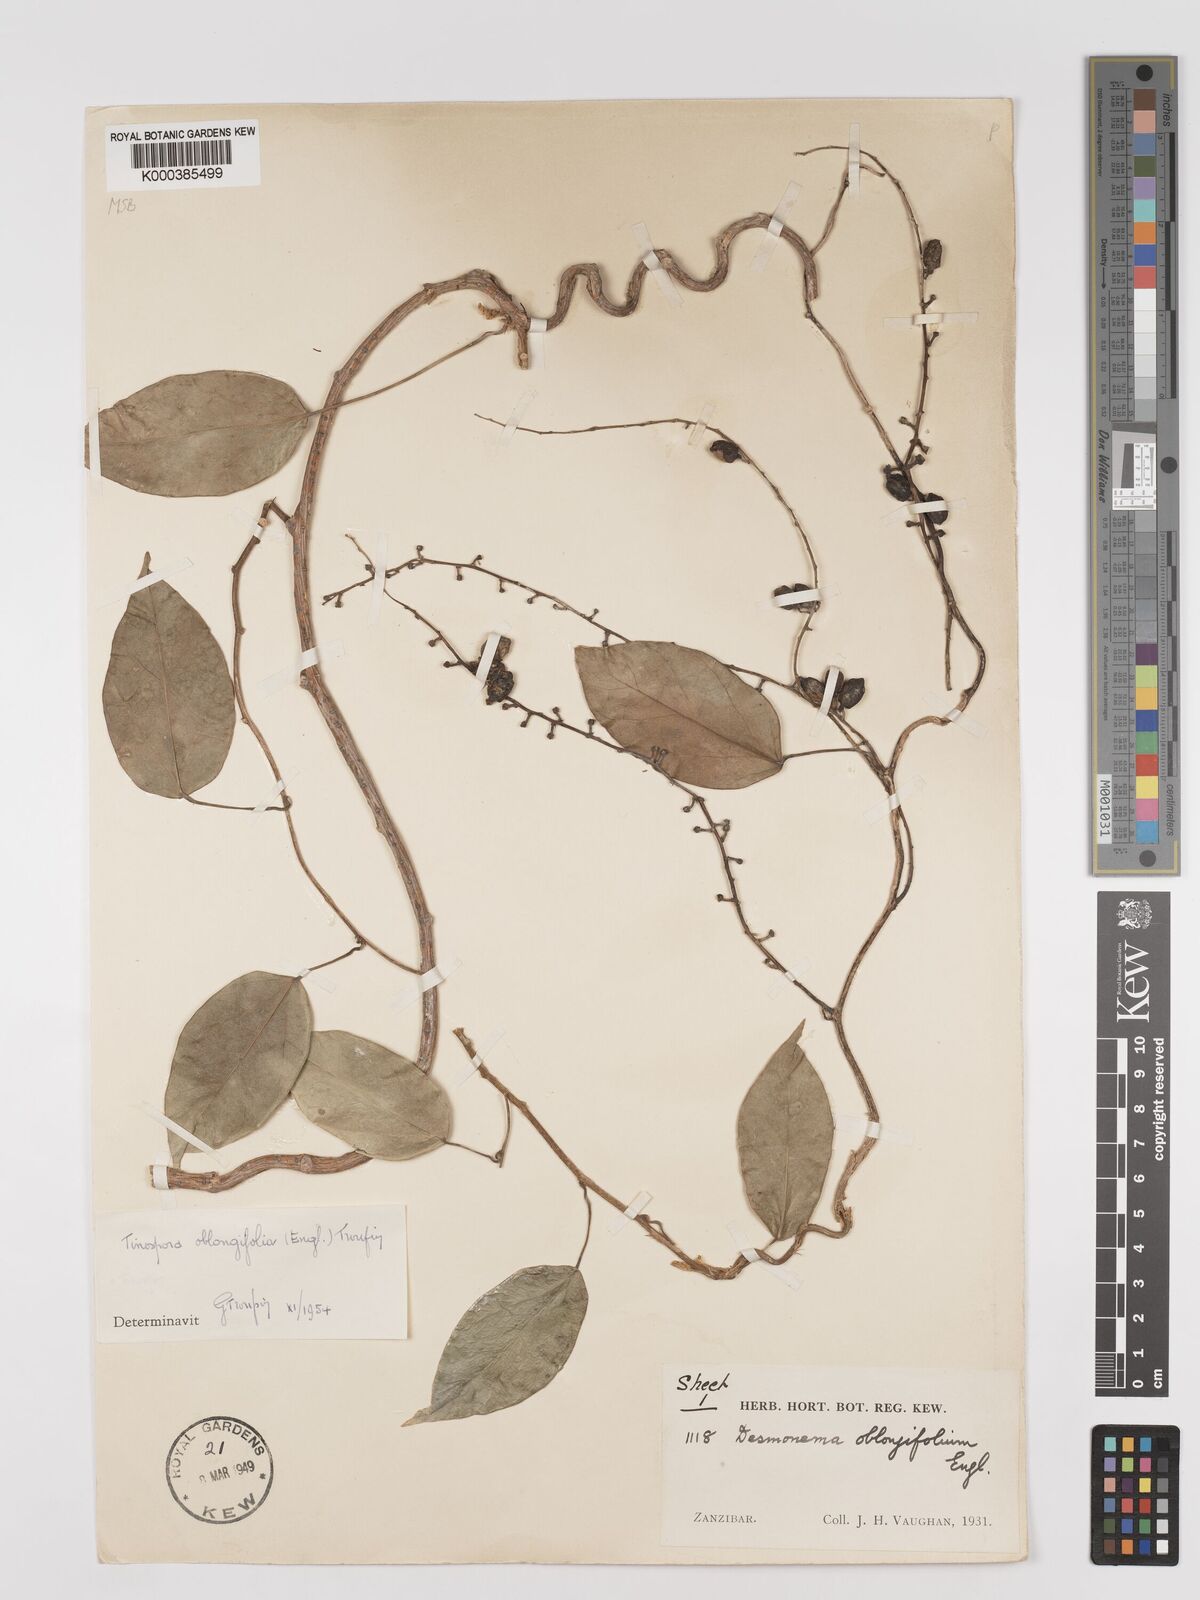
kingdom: Plantae
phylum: Tracheophyta
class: Magnoliopsida
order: Ranunculales
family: Menispermaceae
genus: Tinospora
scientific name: Tinospora oblongifolia
